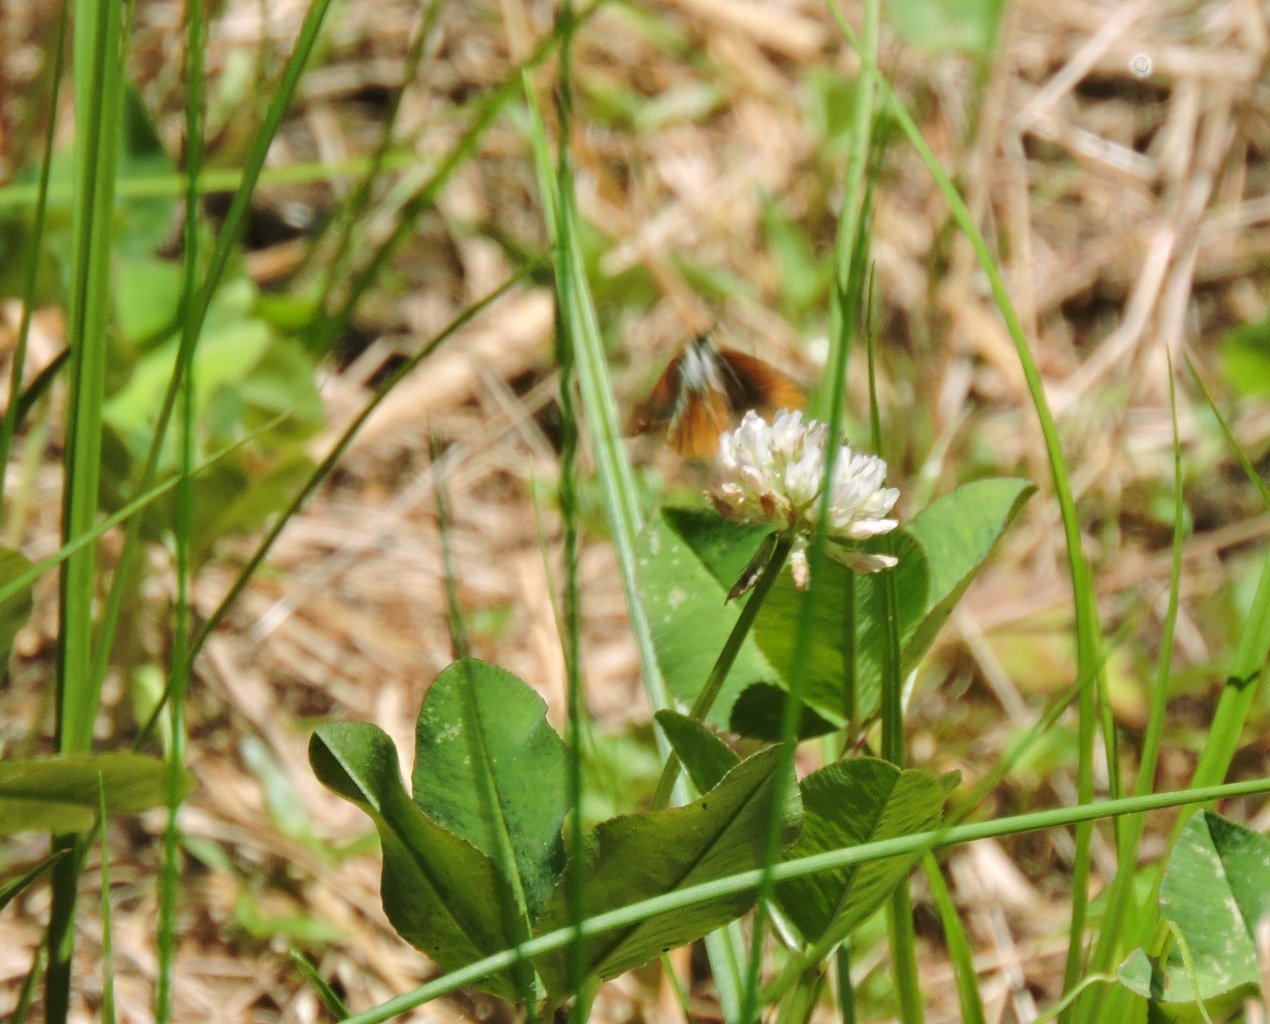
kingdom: Animalia
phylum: Arthropoda
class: Insecta
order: Lepidoptera
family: Hesperiidae
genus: Copaeodes
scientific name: Copaeodes minima
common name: Southern Skipperling
